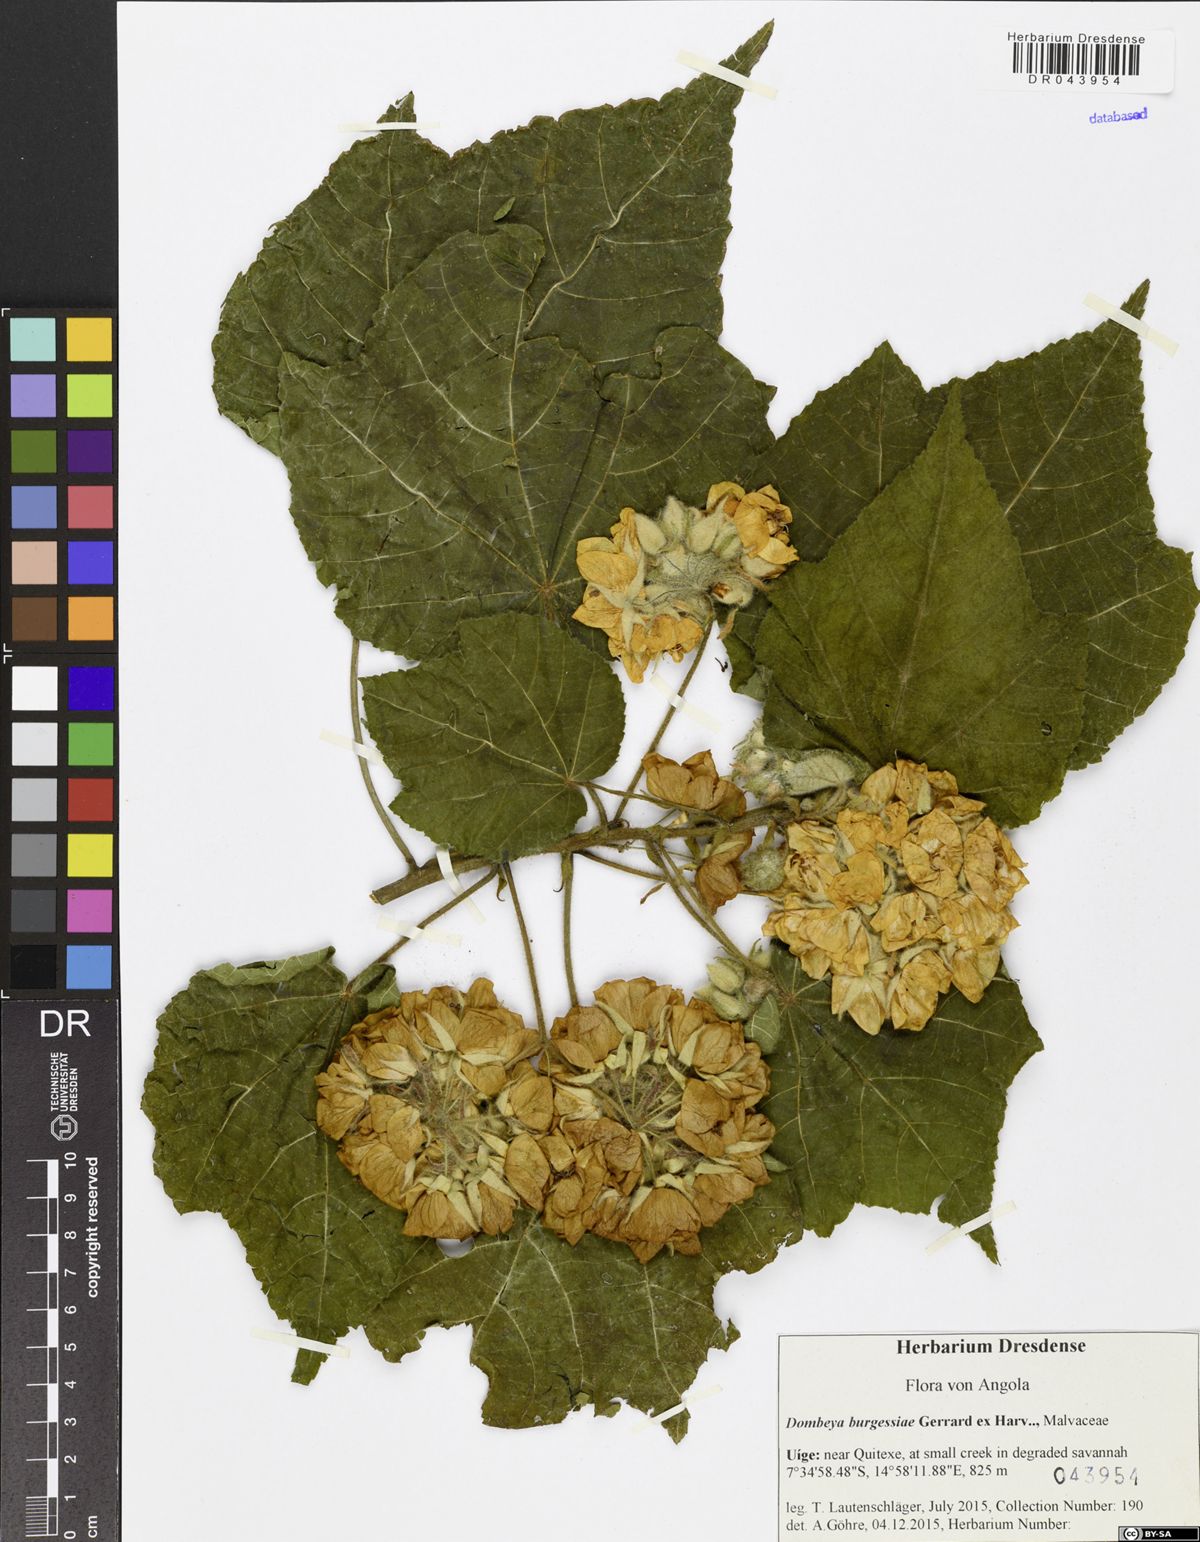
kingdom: Plantae
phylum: Tracheophyta
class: Magnoliopsida
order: Malvales
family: Malvaceae
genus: Dombeya
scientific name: Dombeya burgessiae
